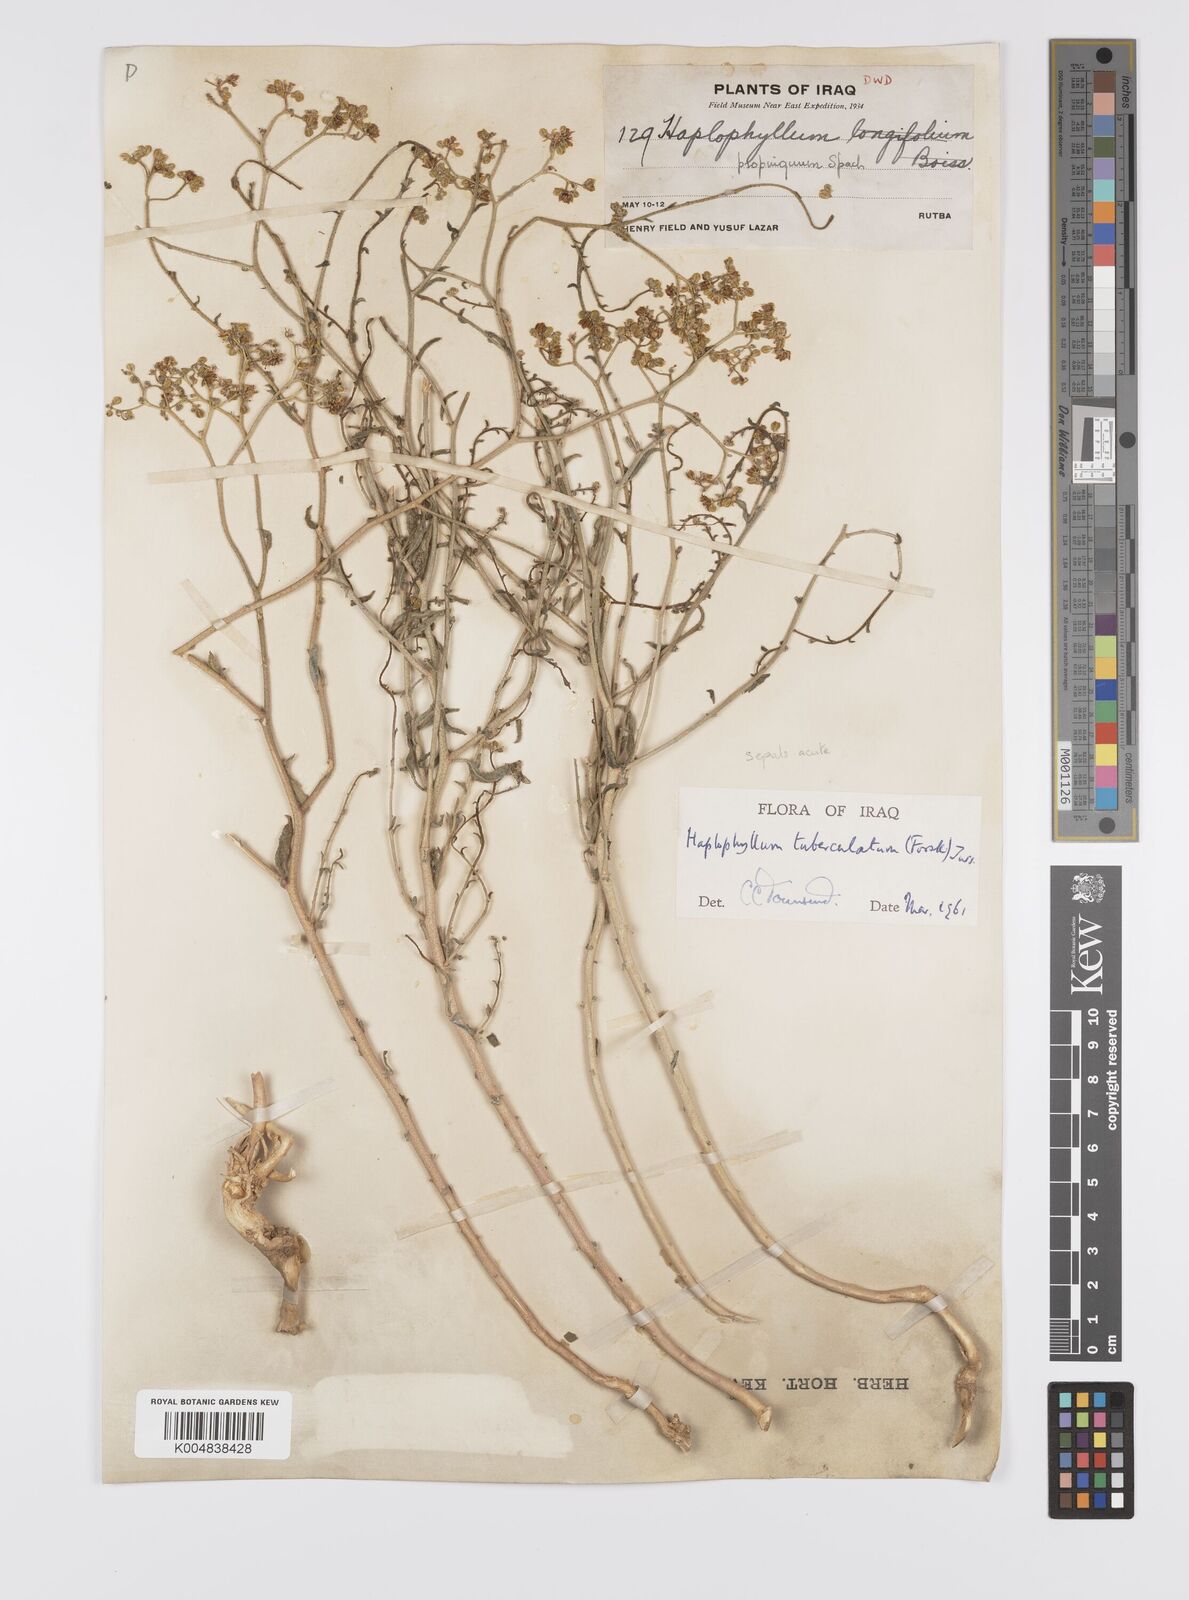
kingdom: Plantae
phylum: Tracheophyta
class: Magnoliopsida
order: Sapindales
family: Rutaceae
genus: Haplophyllum
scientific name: Haplophyllum tuberculatum
